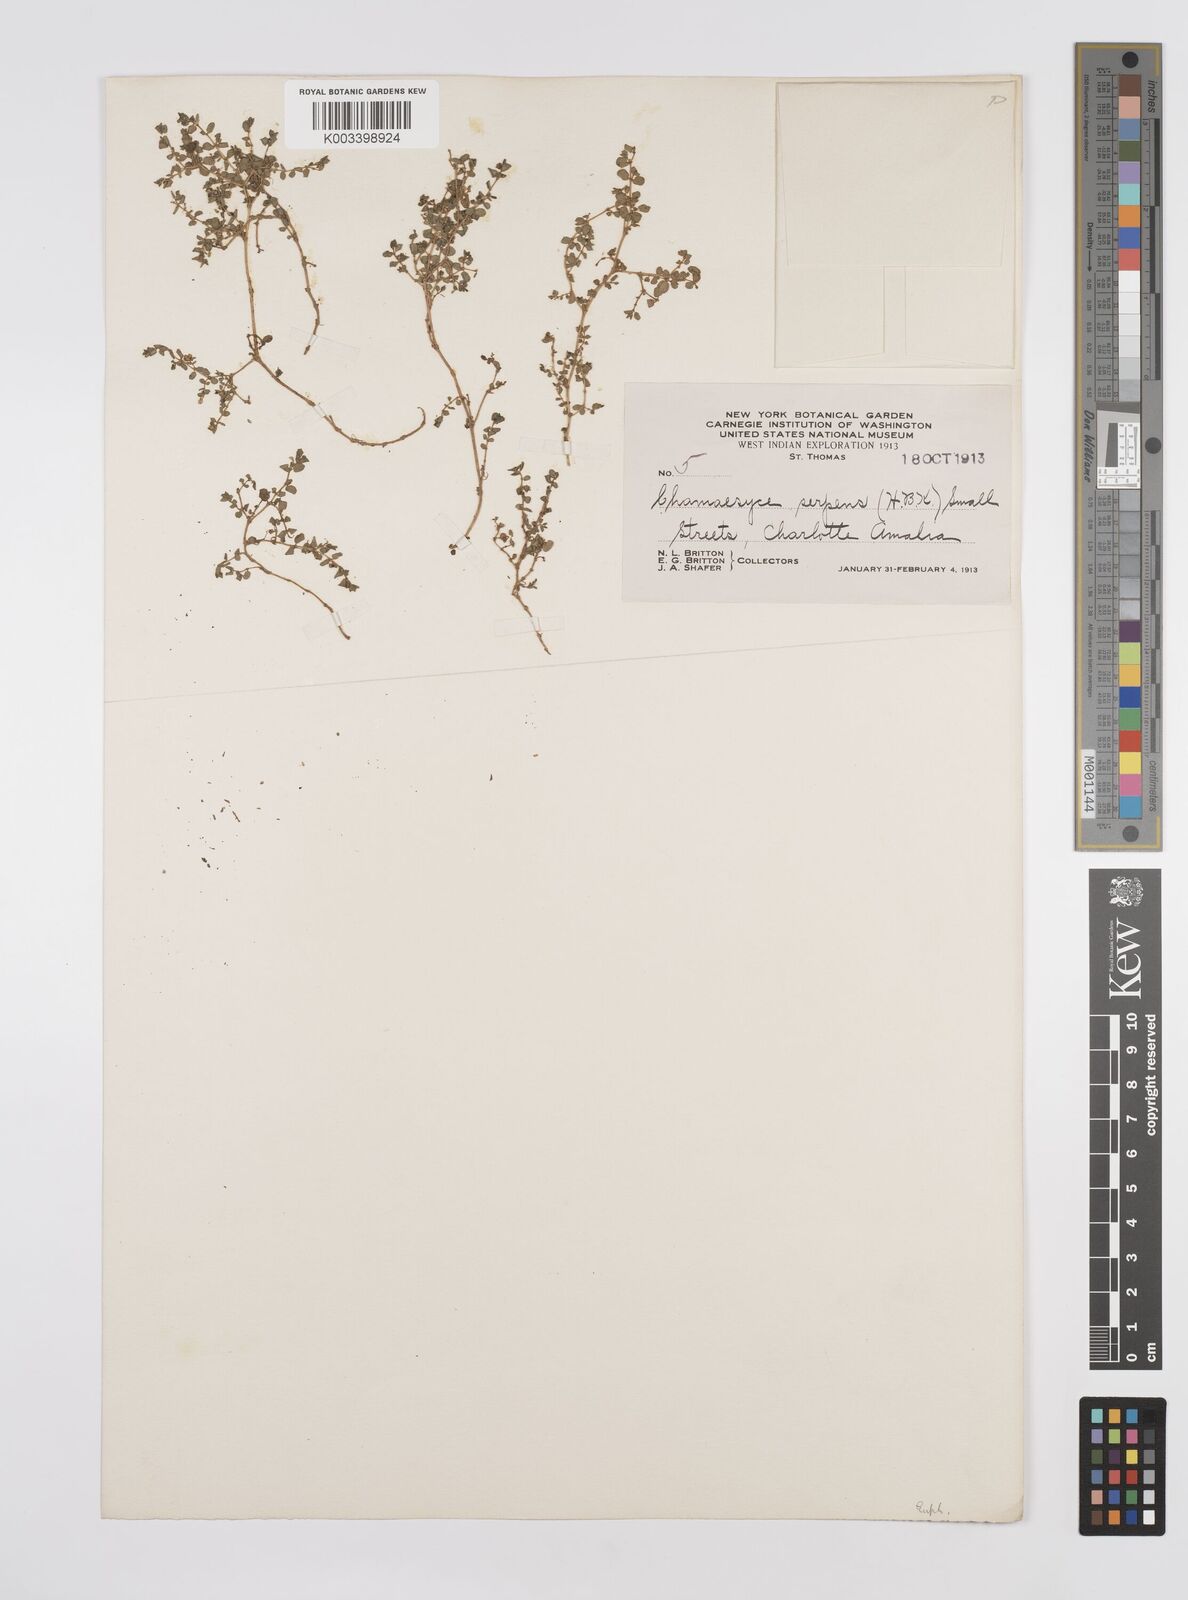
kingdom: Plantae
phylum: Tracheophyta
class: Magnoliopsida
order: Malpighiales
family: Euphorbiaceae
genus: Euphorbia
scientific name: Euphorbia balbisii
